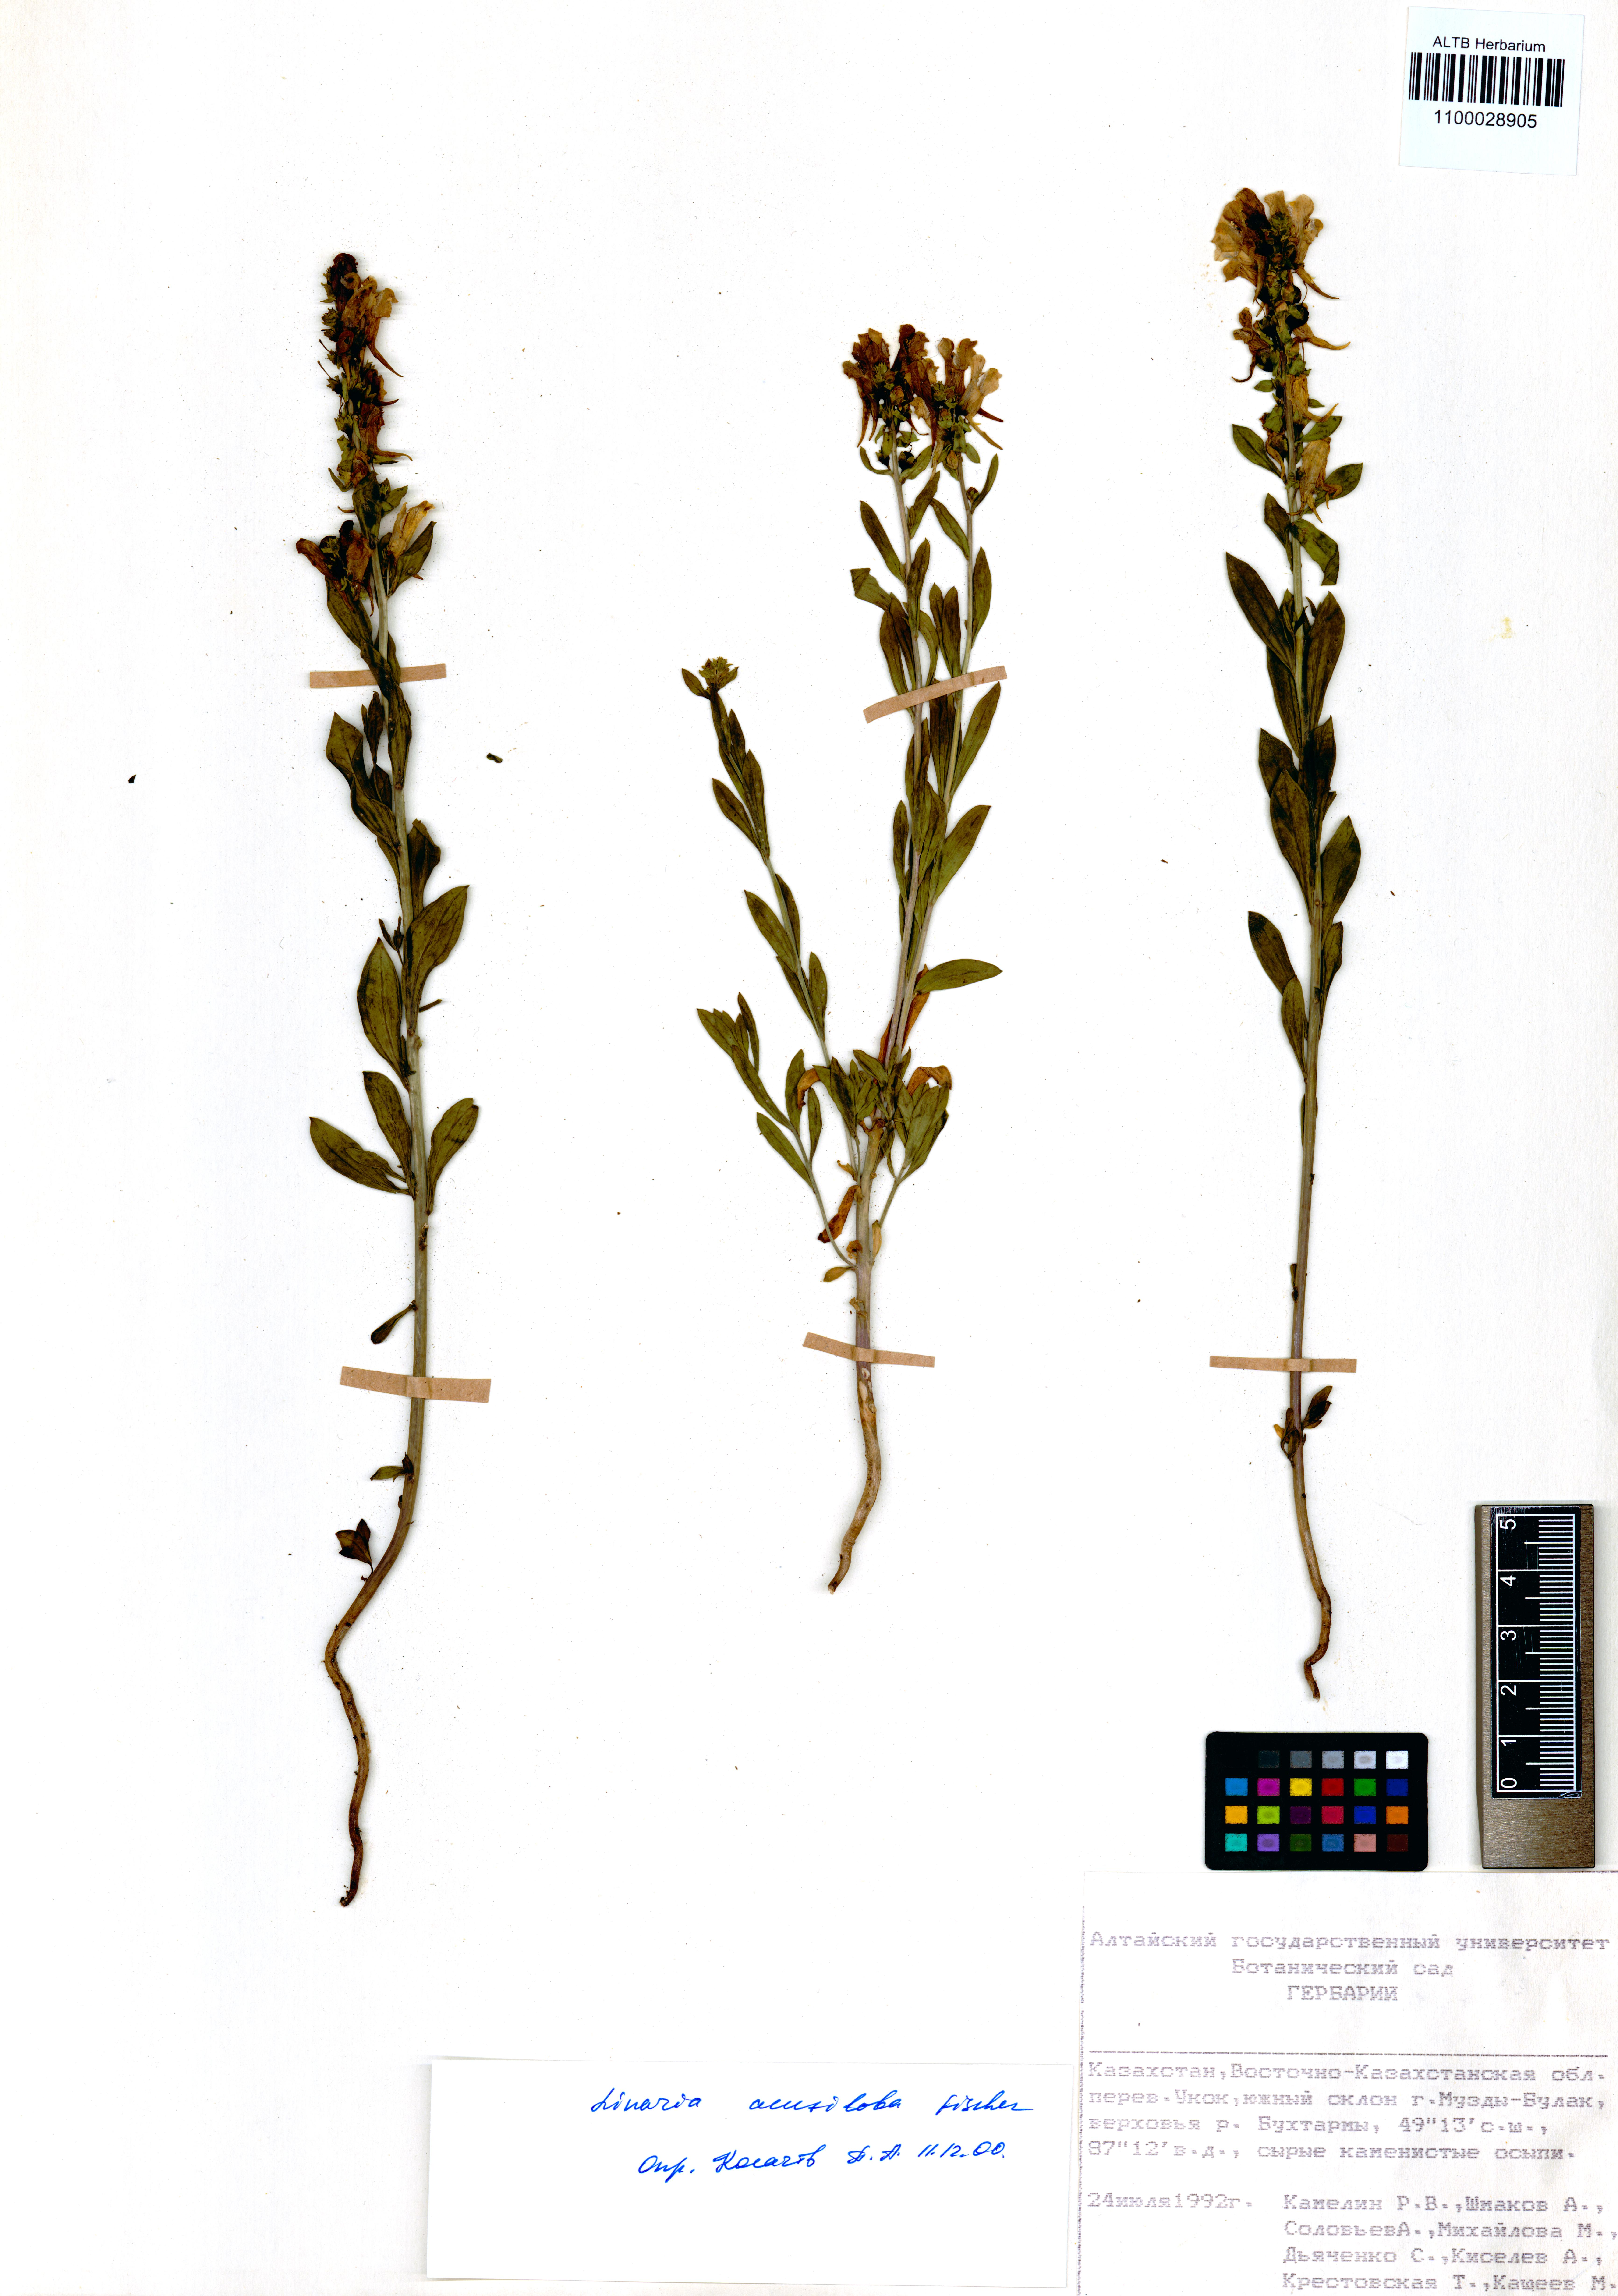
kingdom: Plantae
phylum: Tracheophyta
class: Magnoliopsida
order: Lamiales
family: Plantaginaceae
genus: Linaria
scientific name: Linaria acutiloba
